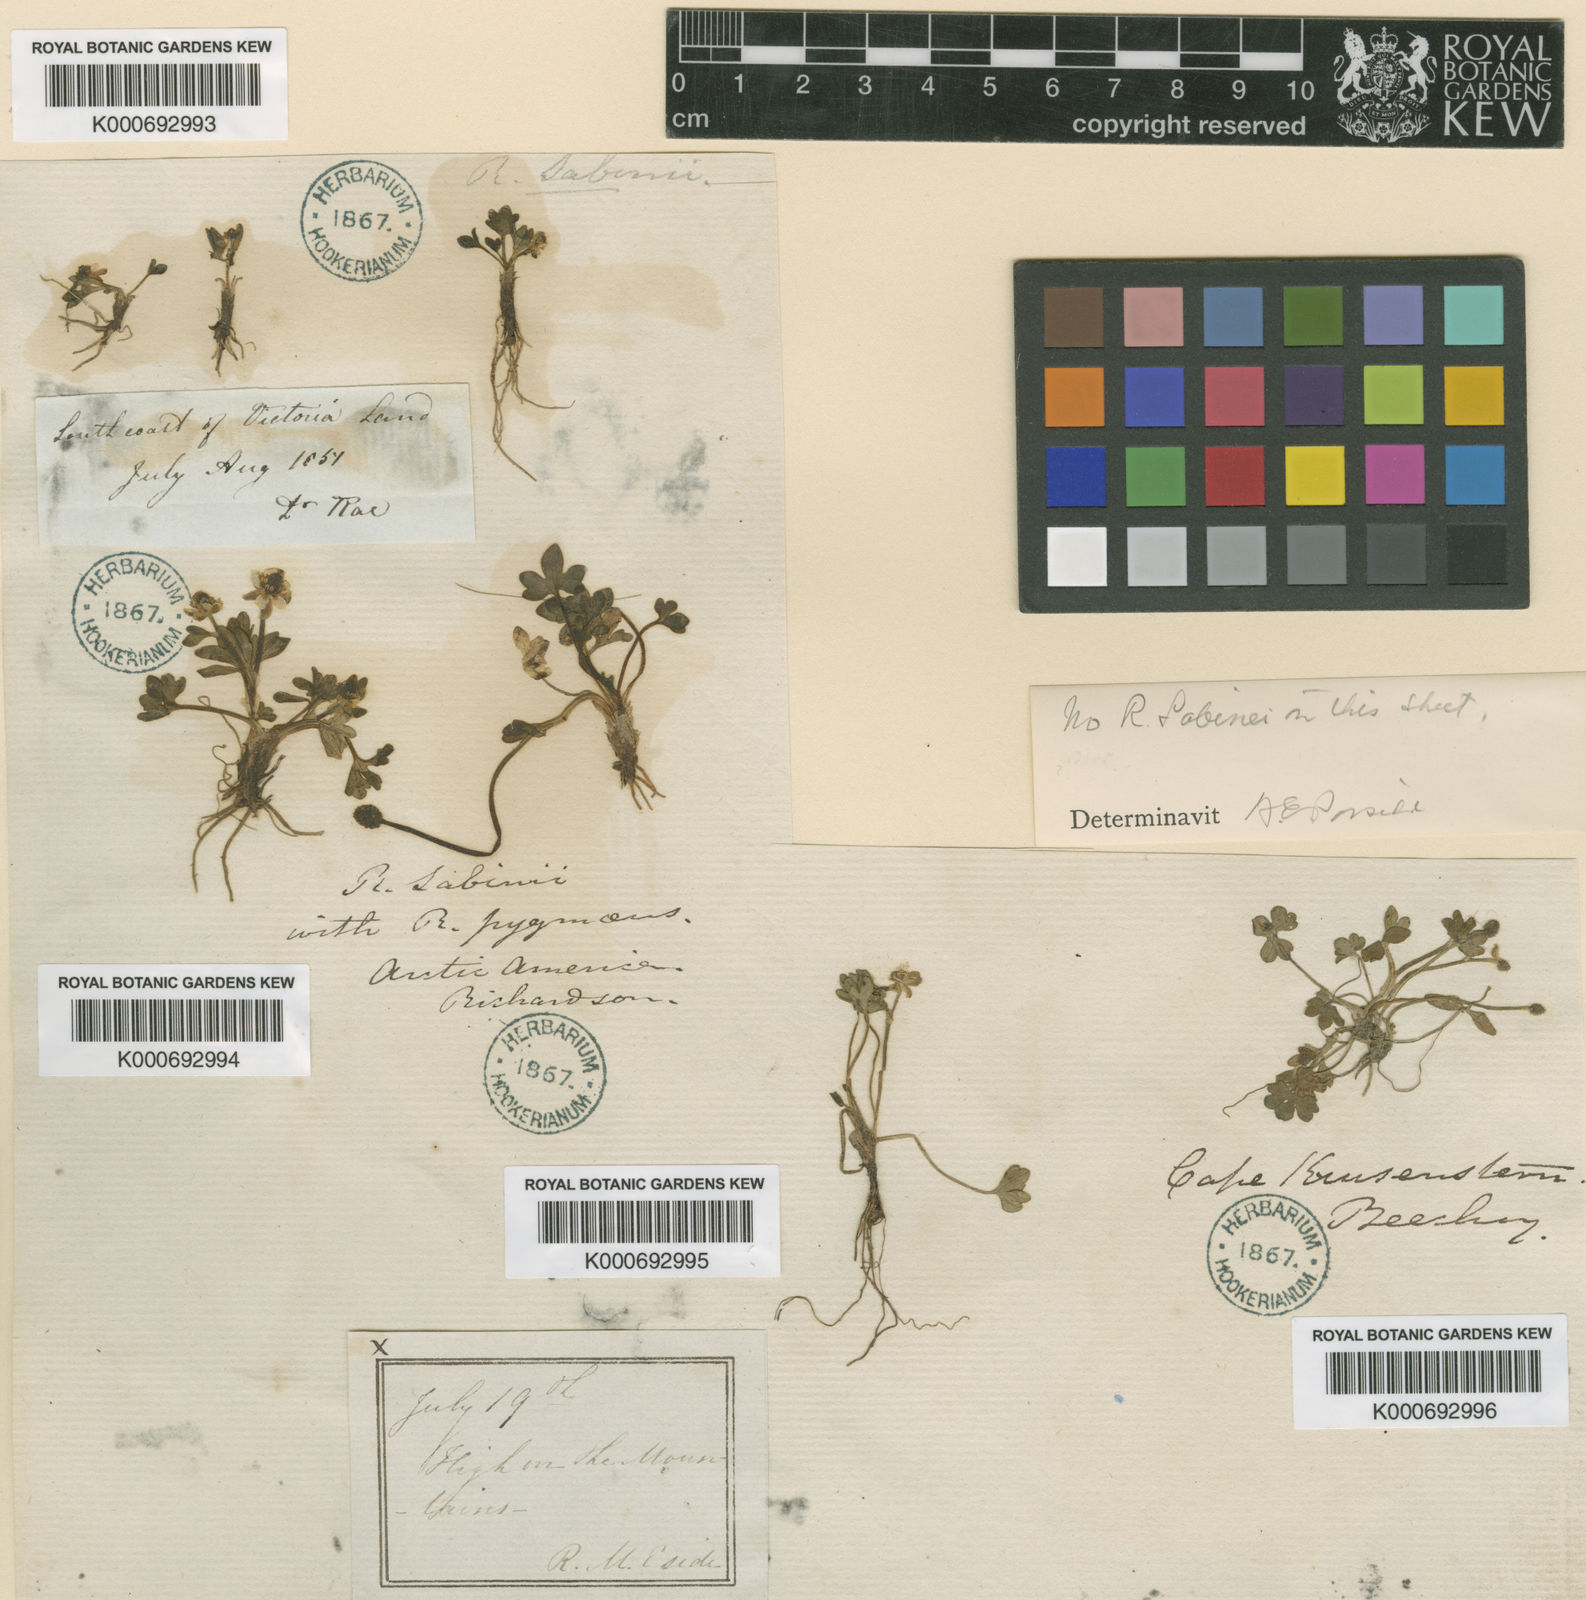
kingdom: Plantae
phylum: Tracheophyta
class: Magnoliopsida
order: Ranunculales
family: Ranunculaceae
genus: Ranunculus
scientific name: Ranunculus pygmaeus
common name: Dwarf buttercup
